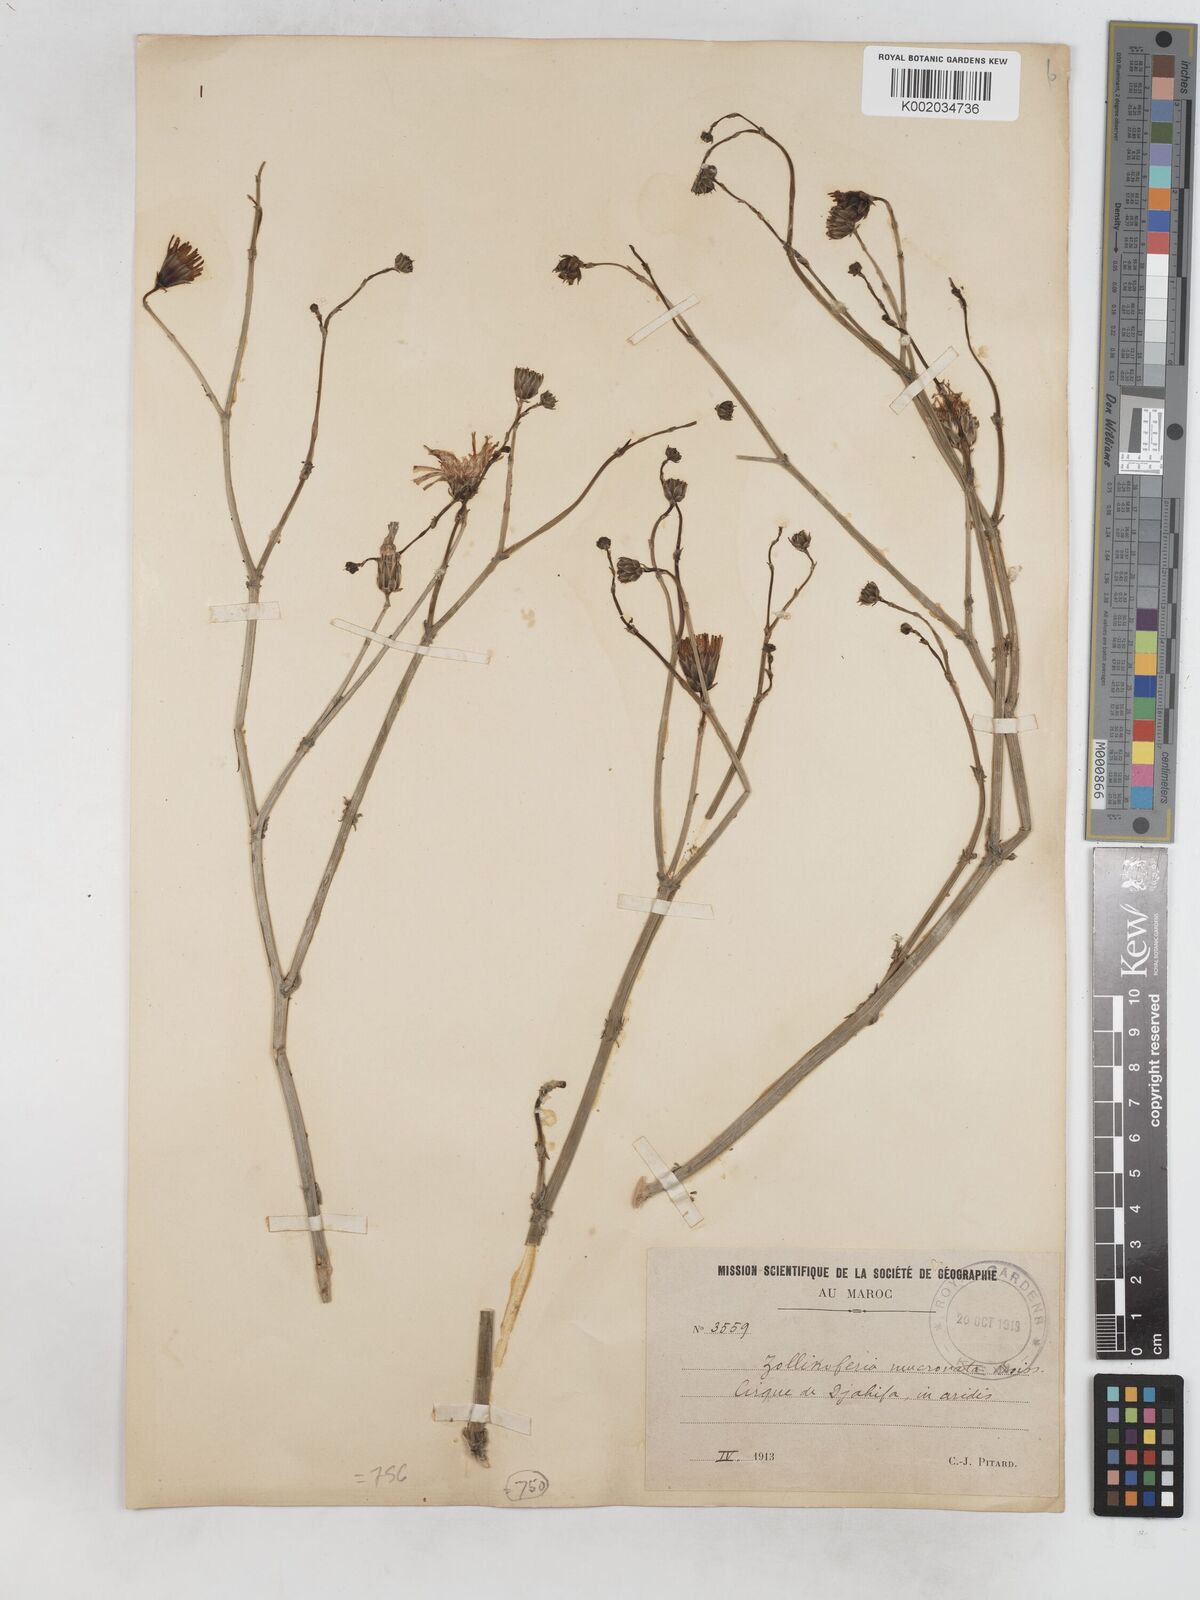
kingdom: Plantae
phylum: Tracheophyta
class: Magnoliopsida
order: Asterales
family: Asteraceae
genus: Launaea
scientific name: Launaea mucronata
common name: Mucronate launea
